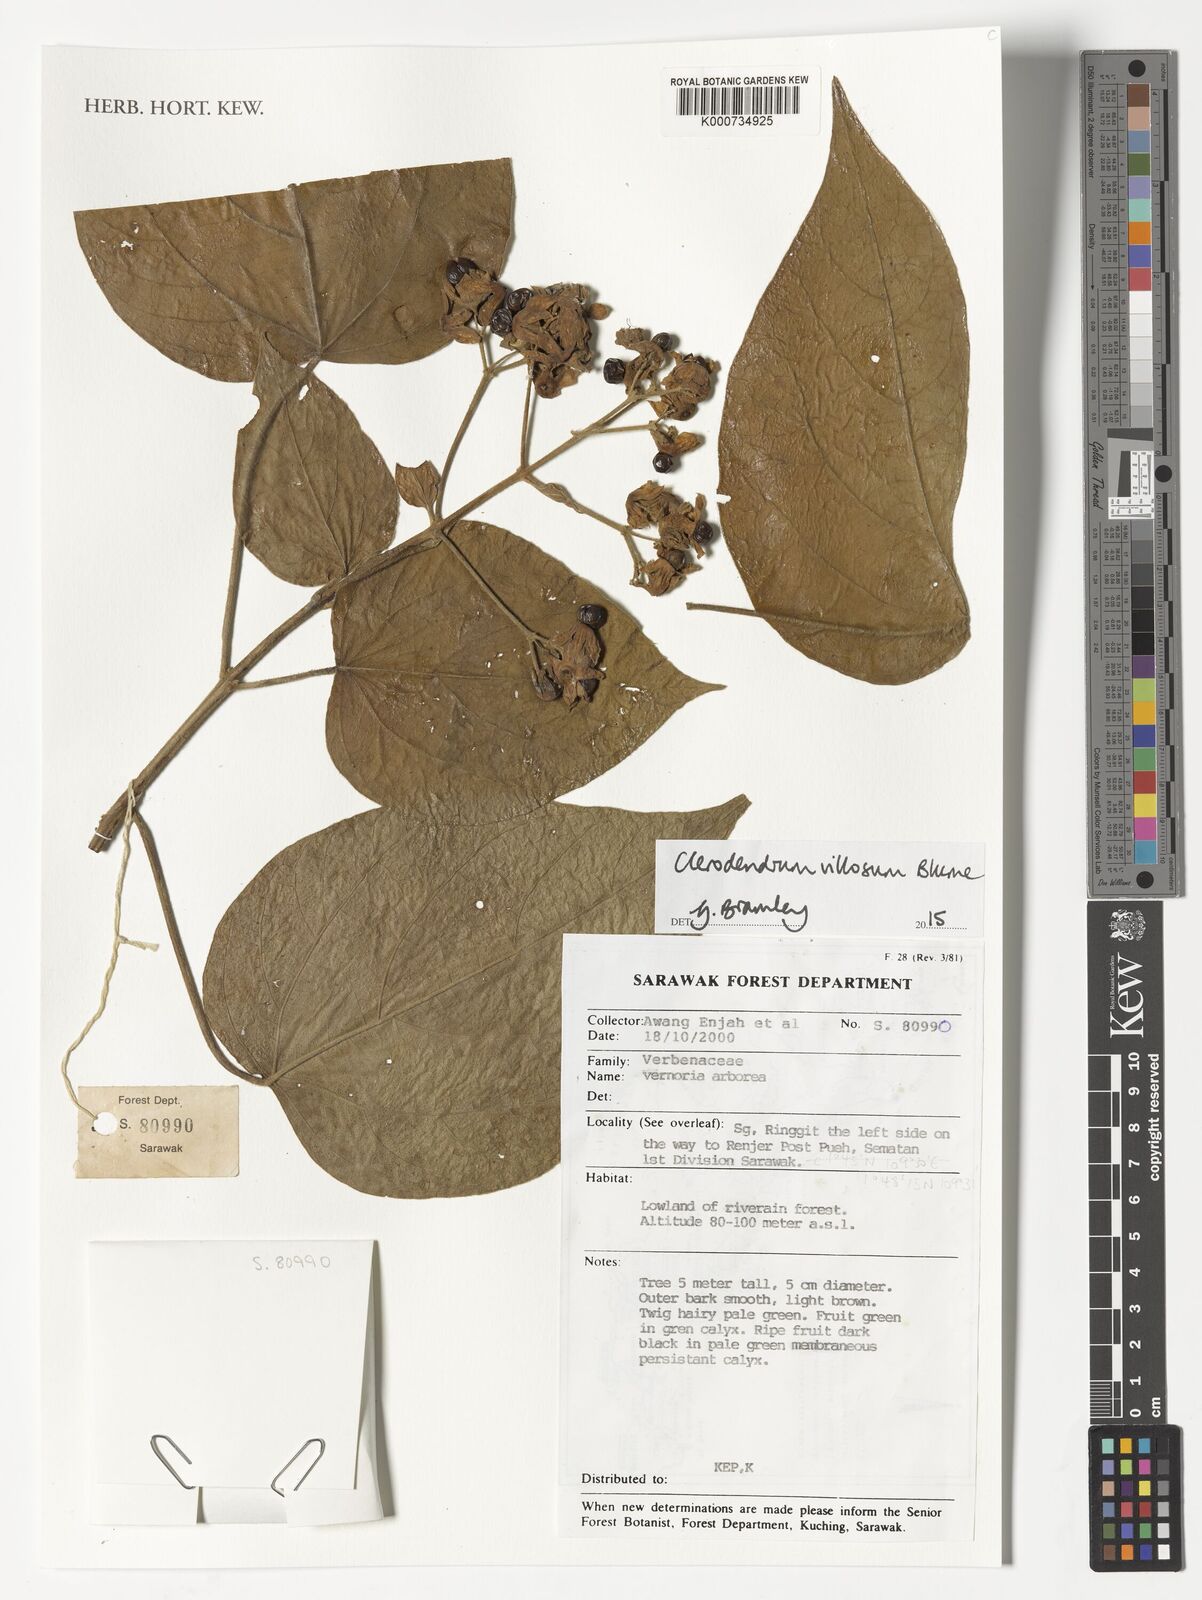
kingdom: Plantae
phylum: Tracheophyta
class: Magnoliopsida
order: Lamiales
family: Lamiaceae
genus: Clerodendrum
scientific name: Clerodendrum villosum
